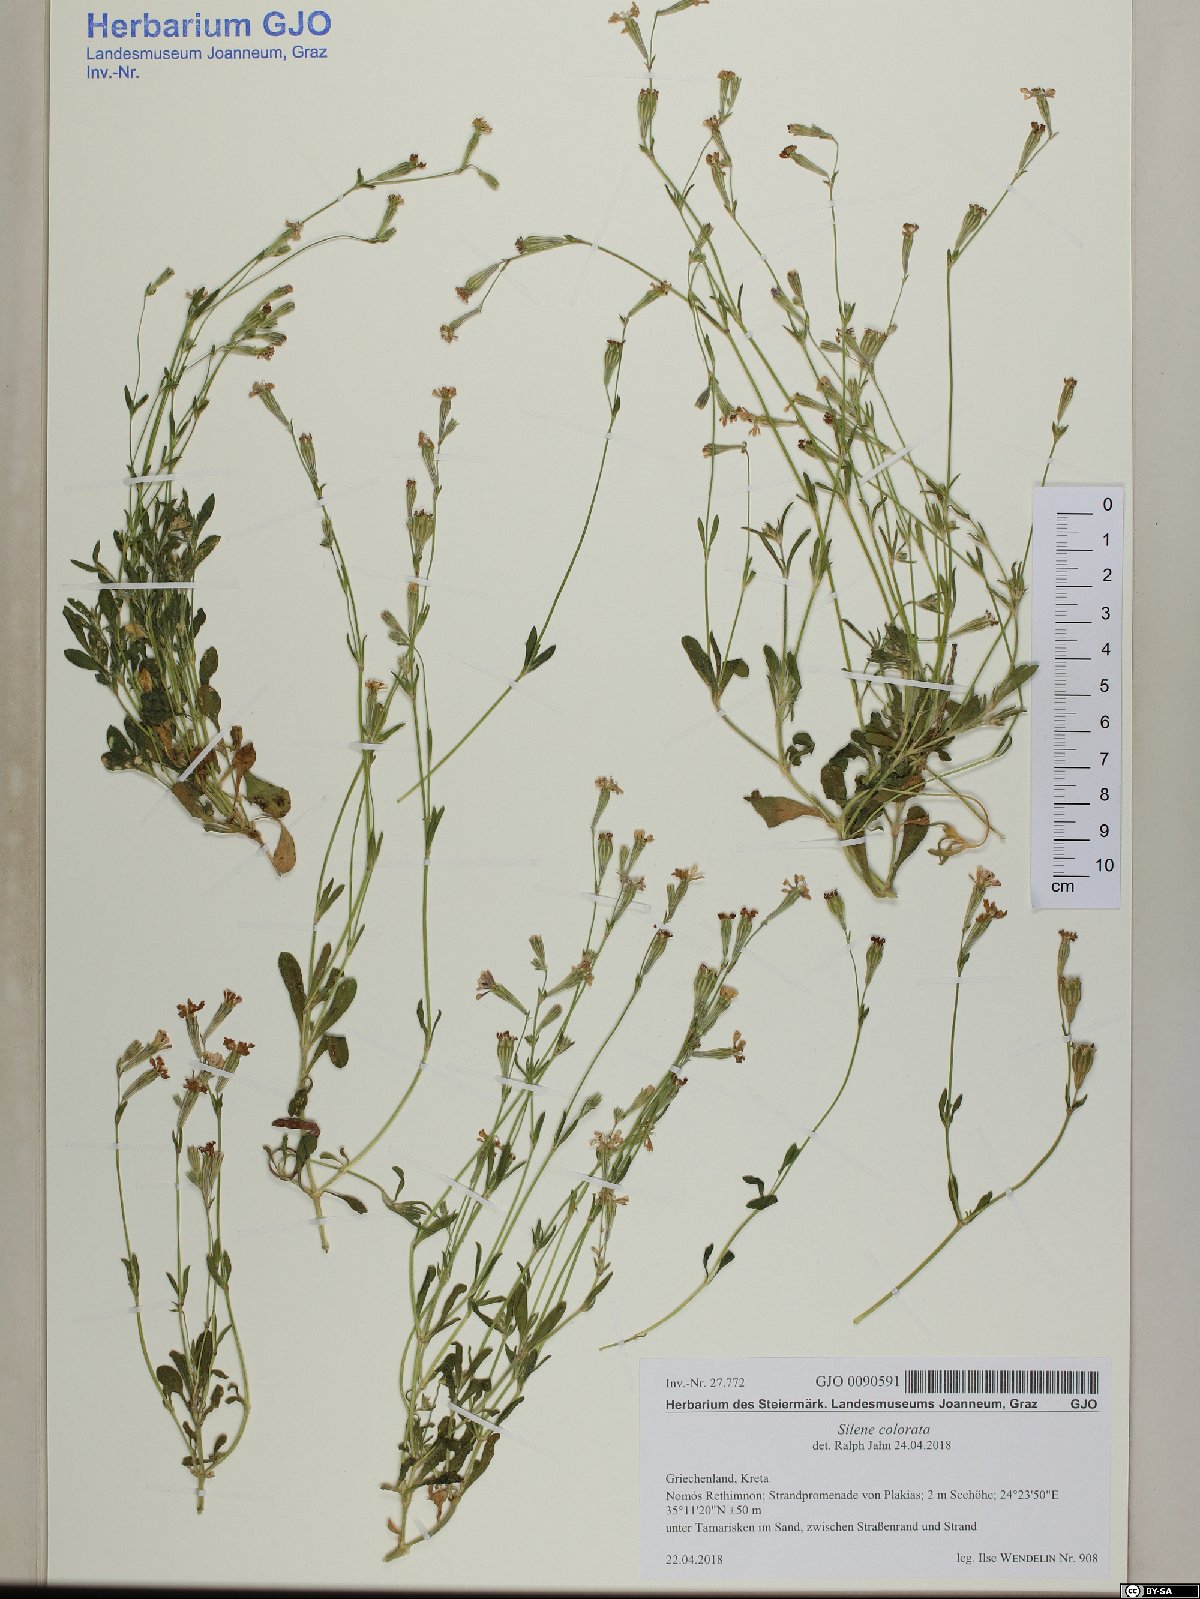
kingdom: Plantae
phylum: Tracheophyta
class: Magnoliopsida
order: Caryophyllales
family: Caryophyllaceae
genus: Silene
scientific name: Silene colorata
